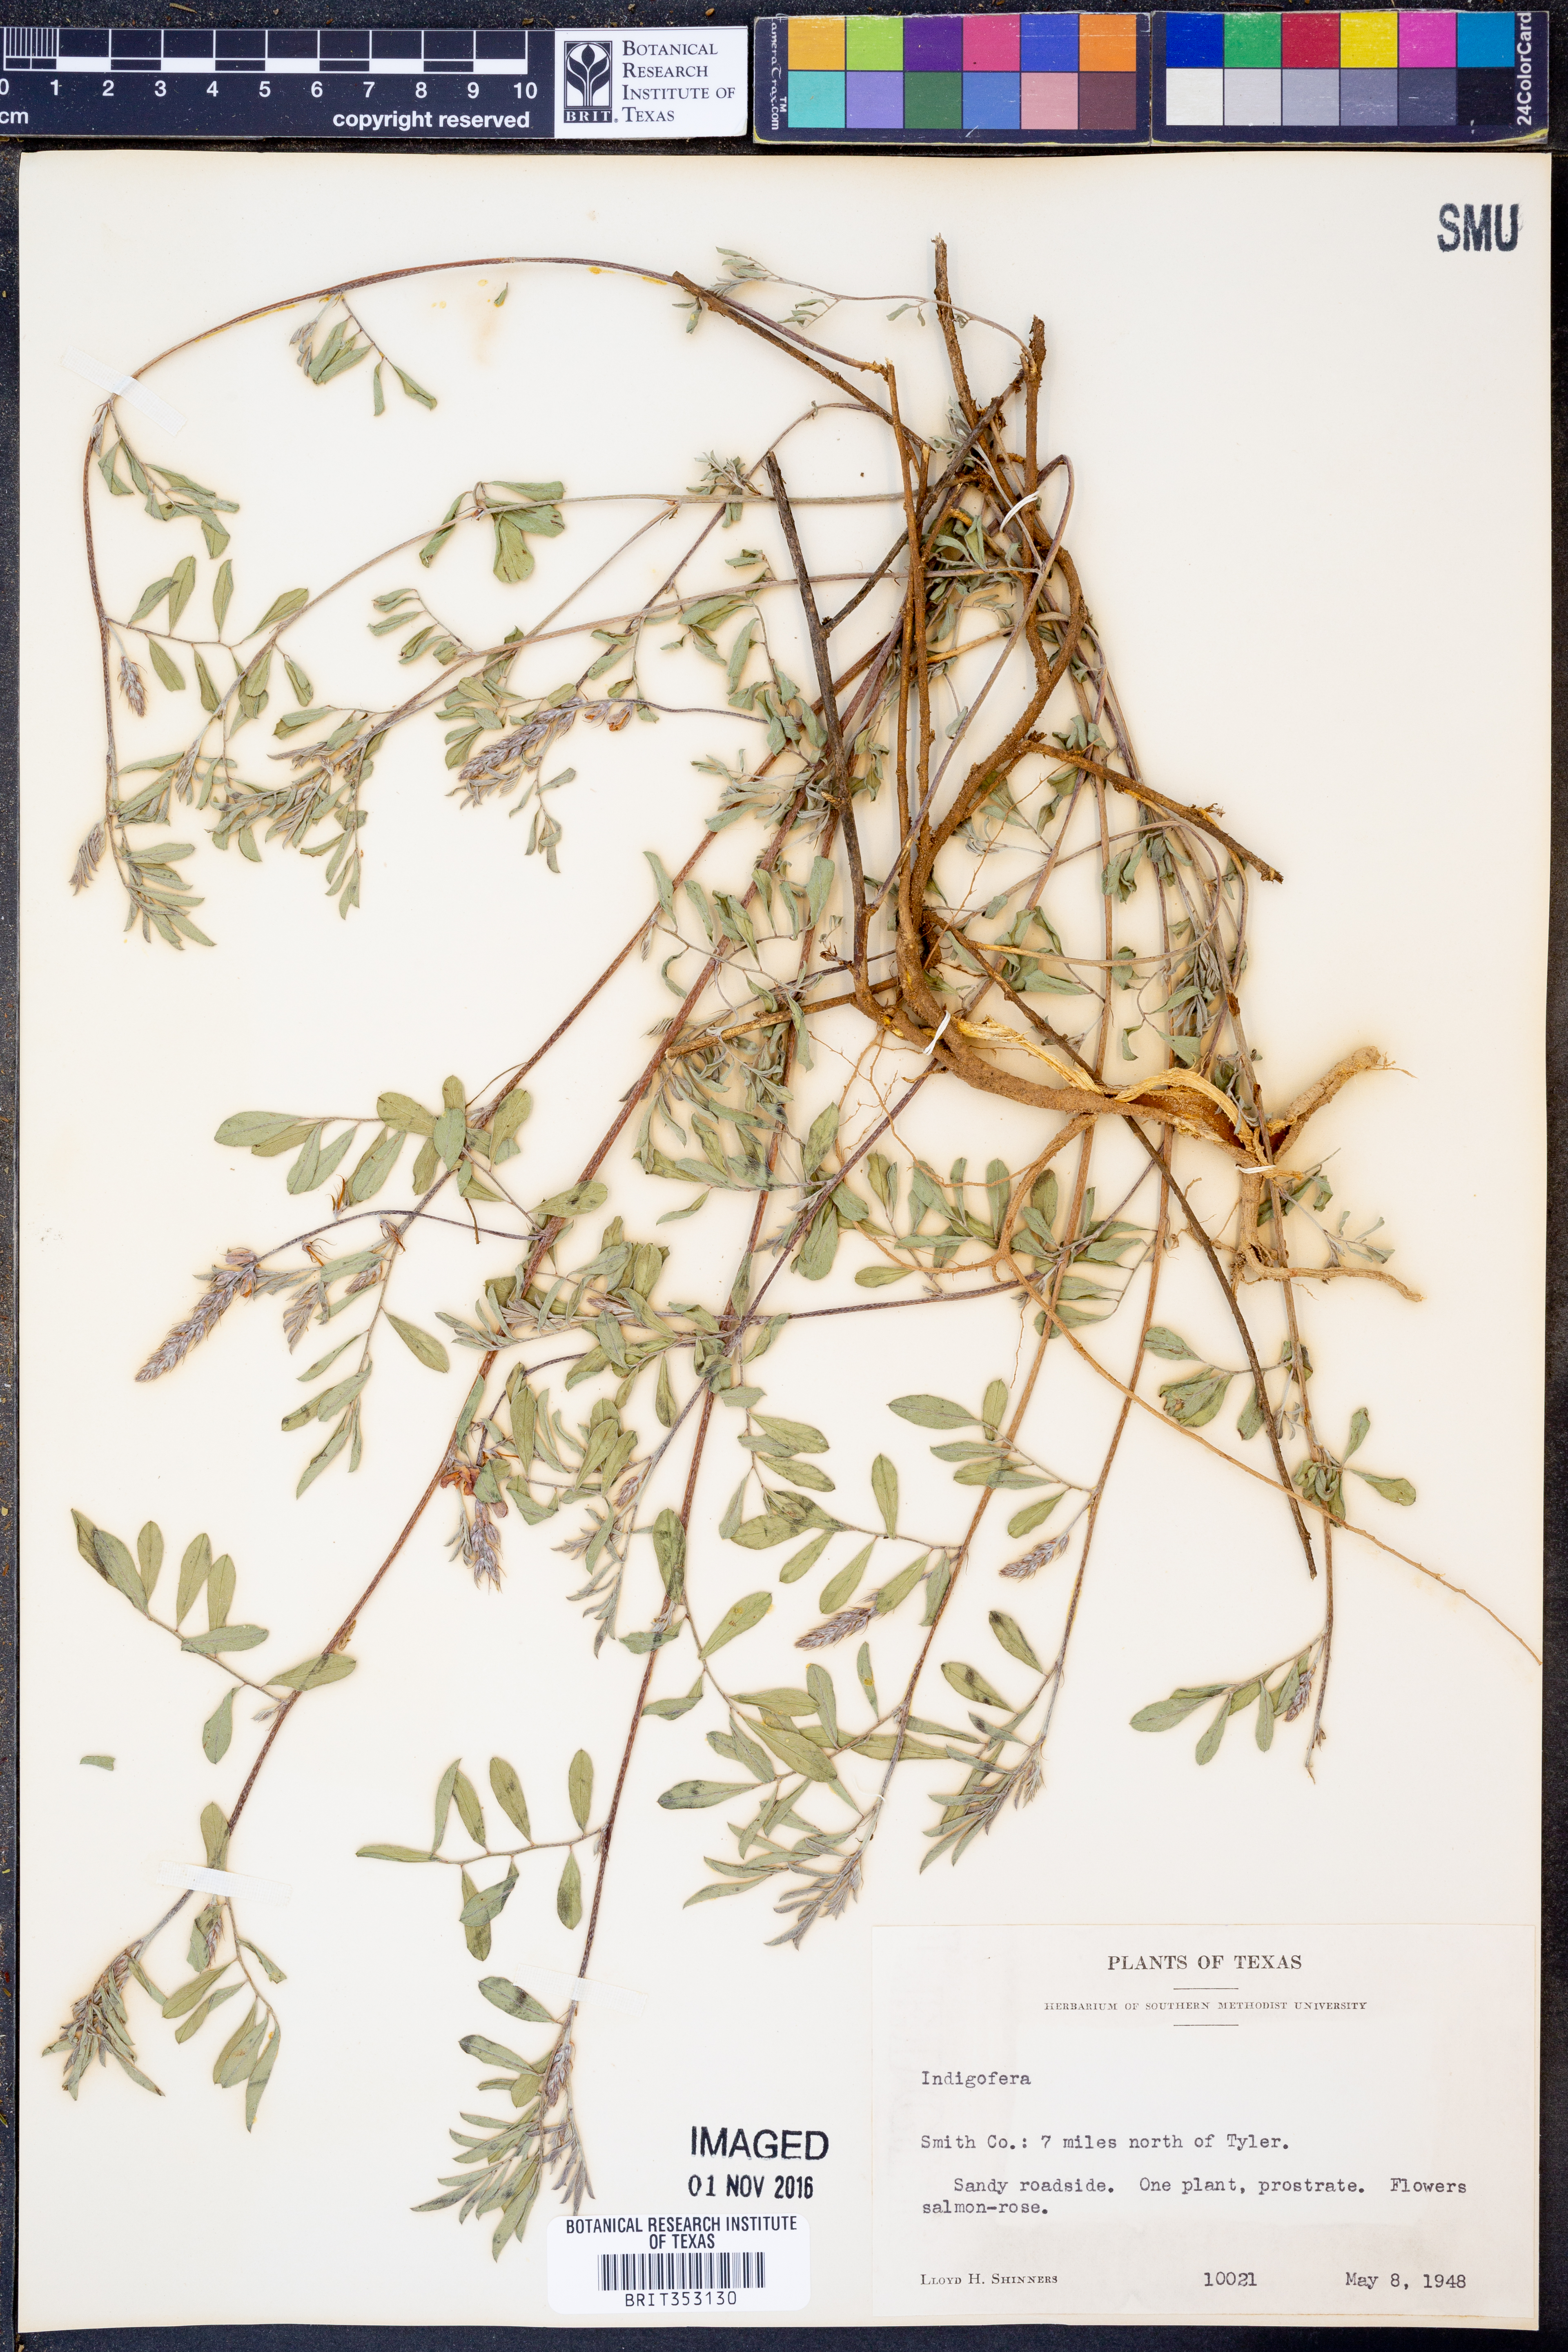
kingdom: Plantae
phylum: Tracheophyta
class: Magnoliopsida
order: Fabales
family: Fabaceae
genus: Indigofera
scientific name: Indigofera
